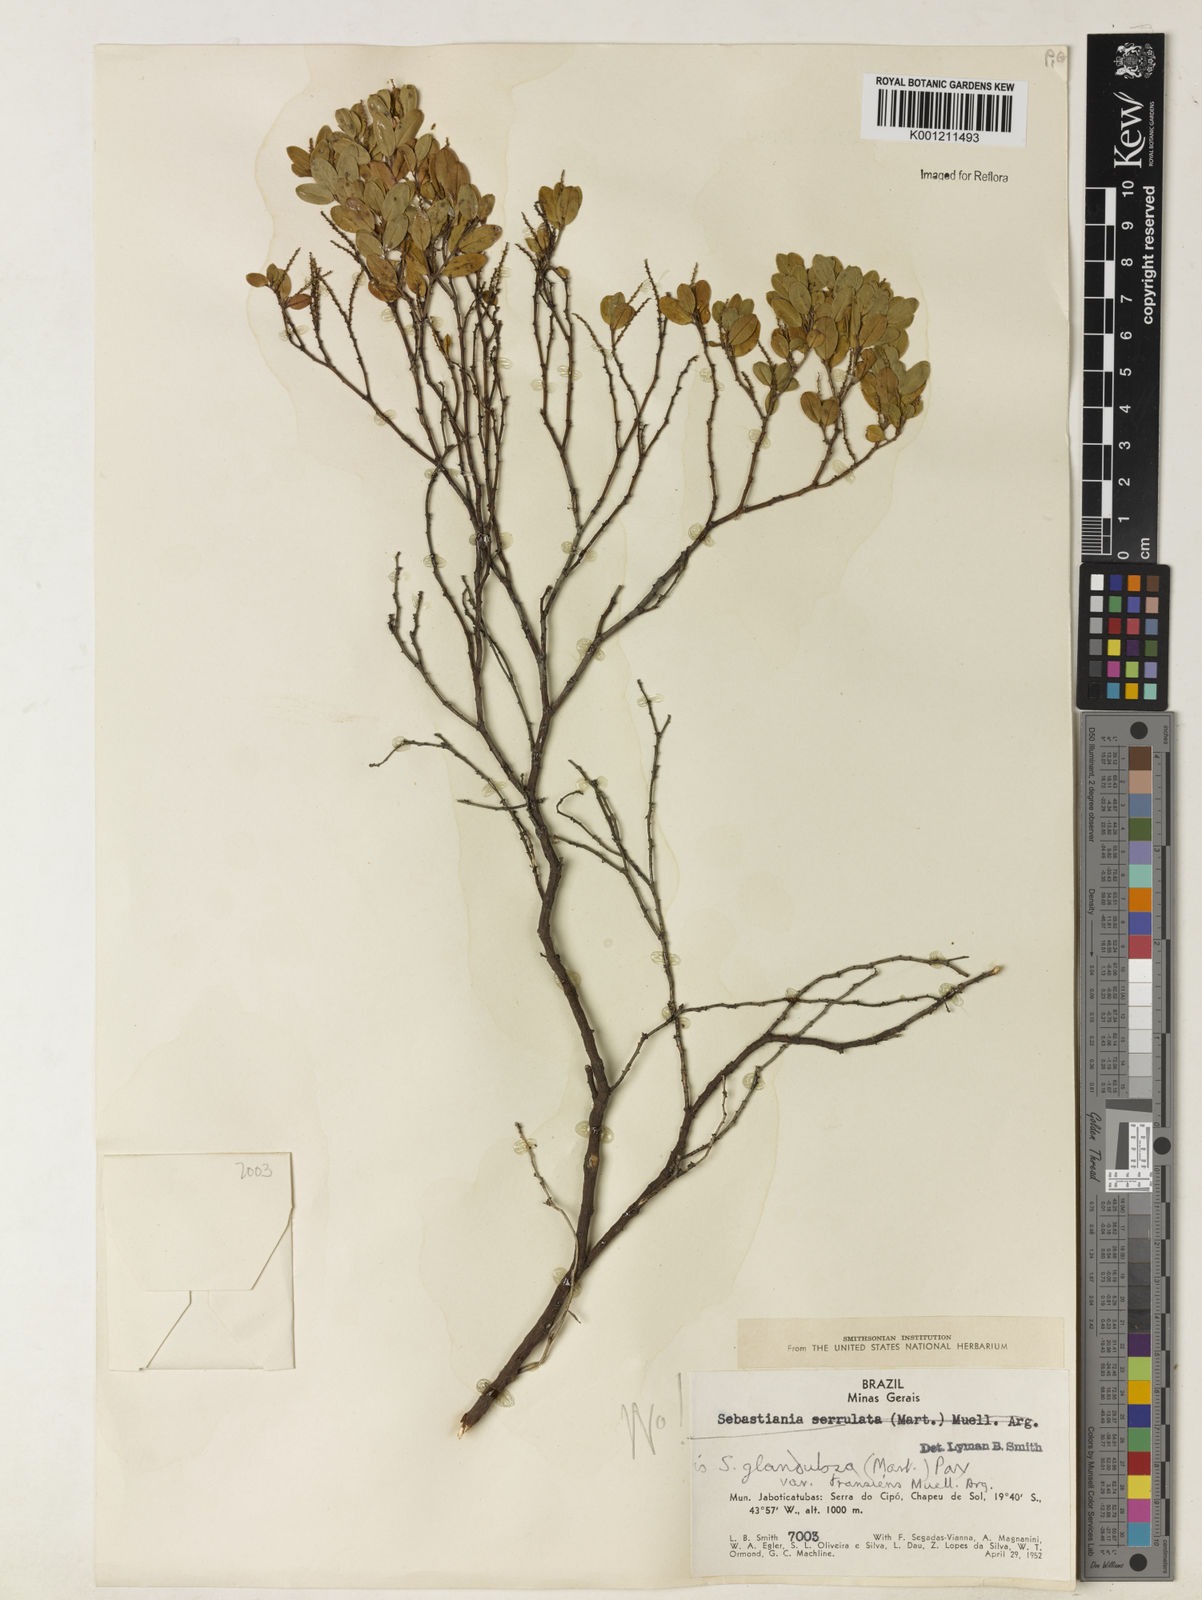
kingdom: Plantae
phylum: Tracheophyta
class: Magnoliopsida
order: Malpighiales
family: Euphorbiaceae
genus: Microstachys
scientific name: Microstachys glandulosa
